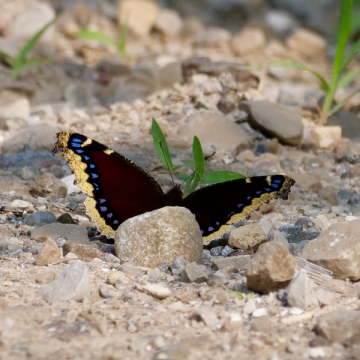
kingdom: Animalia
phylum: Arthropoda
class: Insecta
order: Lepidoptera
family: Nymphalidae
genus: Nymphalis
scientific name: Nymphalis antiopa
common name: Mourning Cloak
